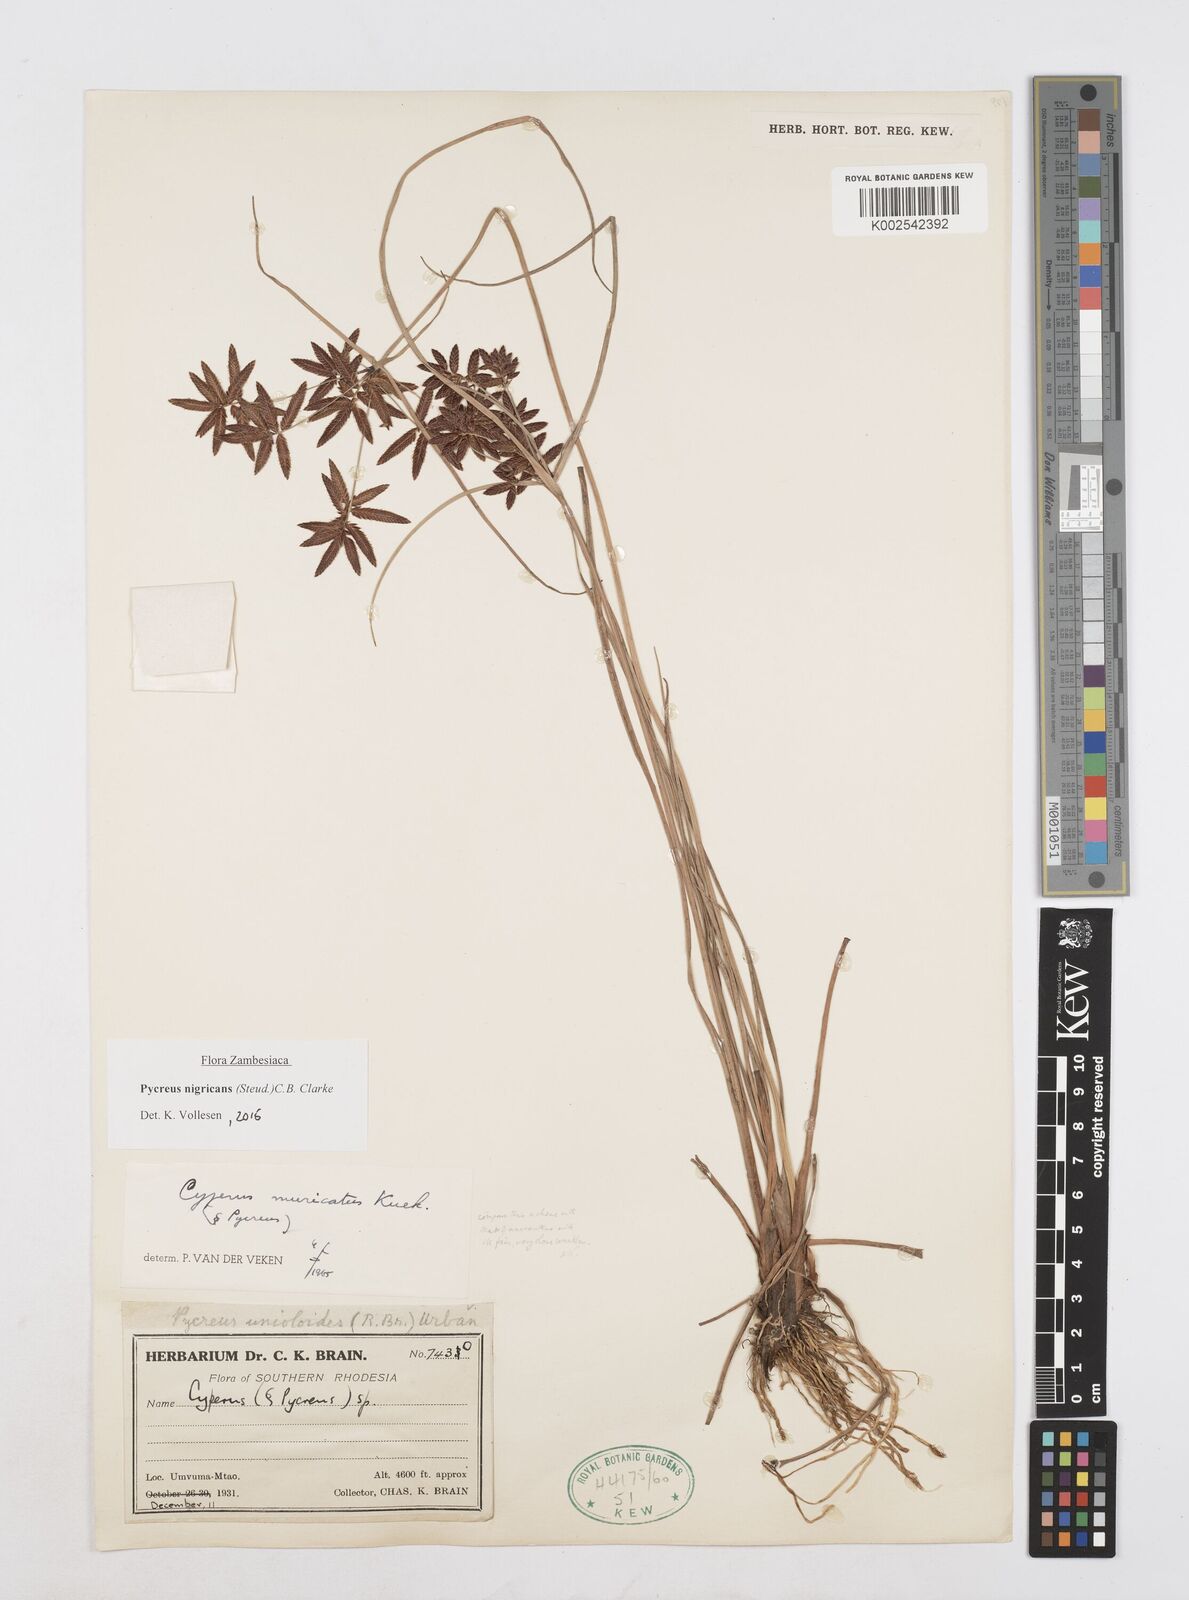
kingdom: Plantae
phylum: Tracheophyta
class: Liliopsida
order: Poales
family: Cyperaceae
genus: Cyperus
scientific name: Cyperus nigricans
